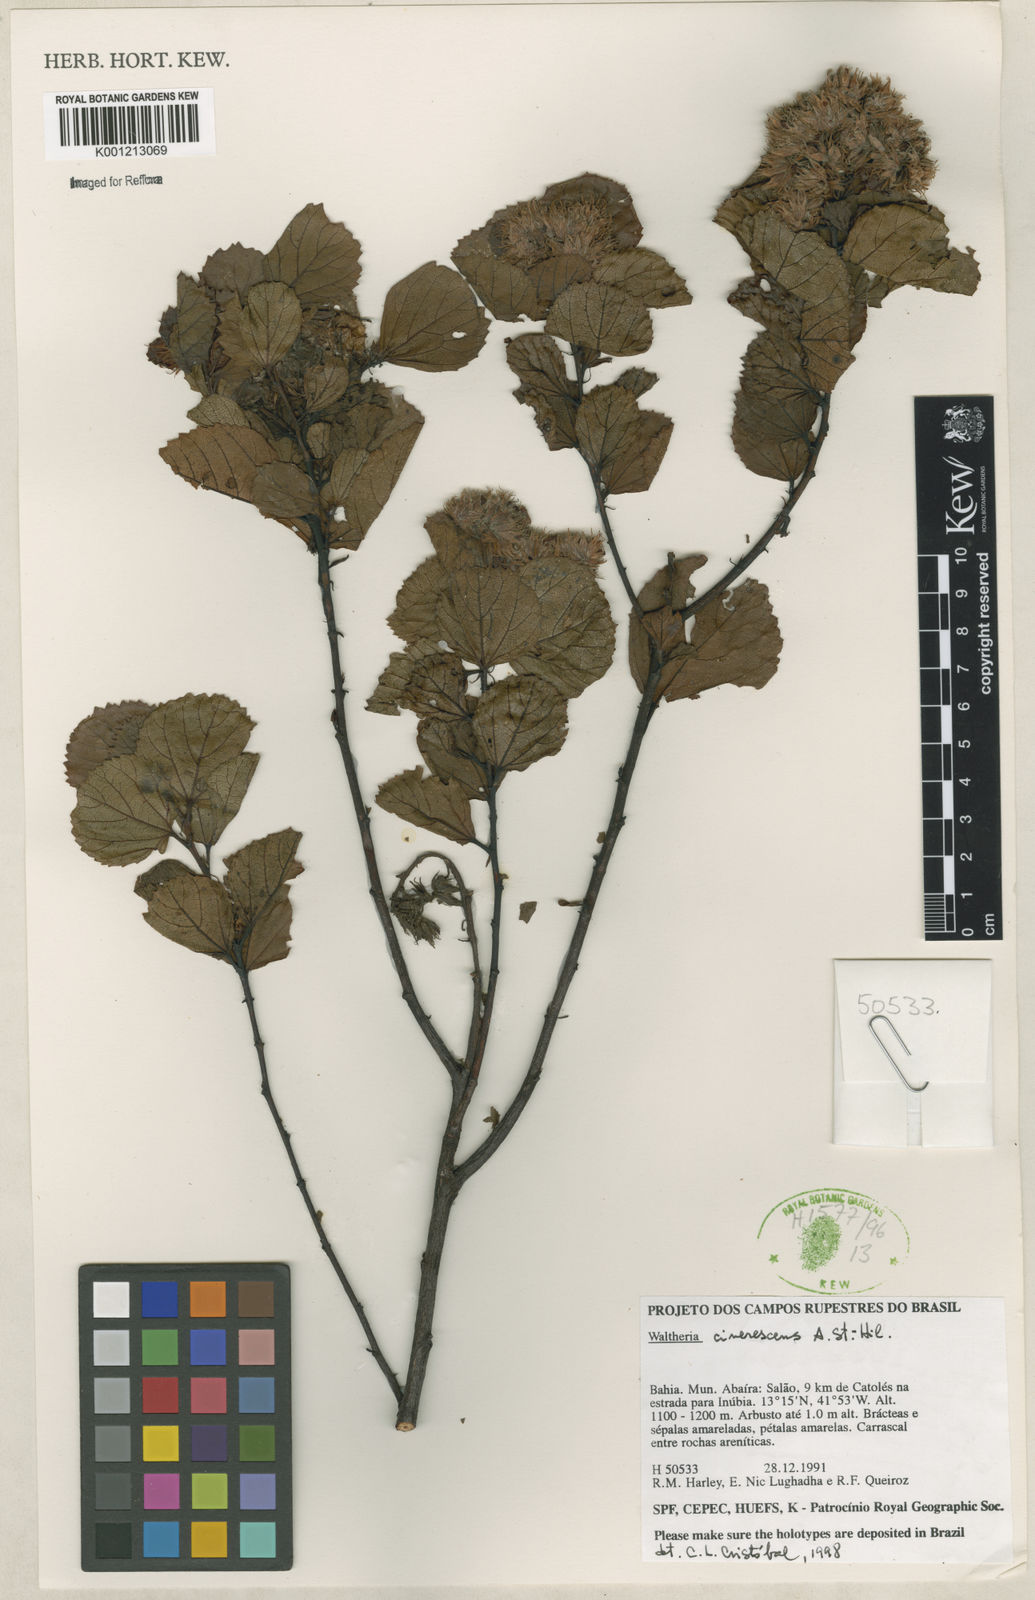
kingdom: Plantae
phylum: Tracheophyta
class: Magnoliopsida
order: Malvales
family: Malvaceae
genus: Waltheria
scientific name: Waltheria cinerescens
